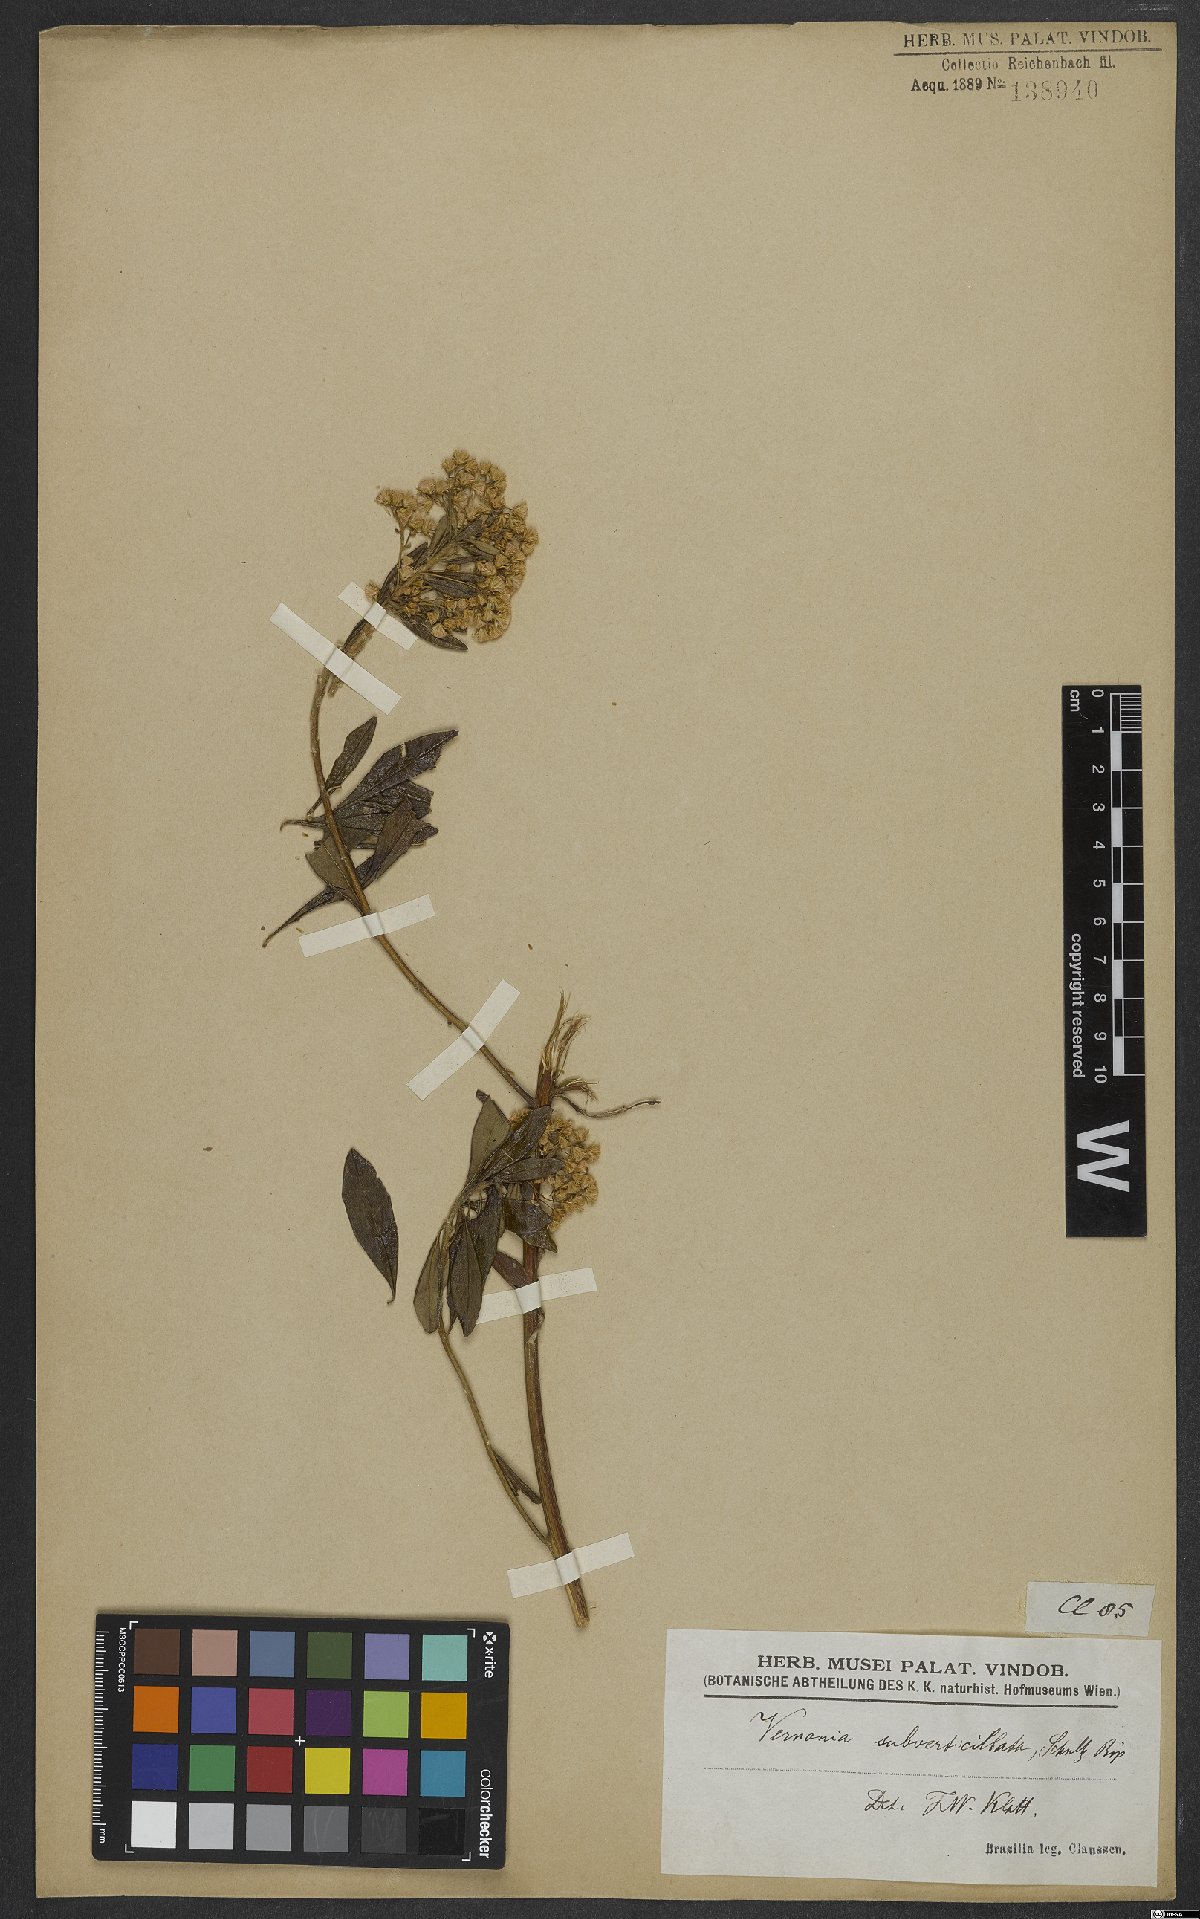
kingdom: Plantae
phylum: Tracheophyta
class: Magnoliopsida
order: Asterales
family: Asteraceae
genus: Vernonanthura
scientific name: Vernonanthura subverticillata
